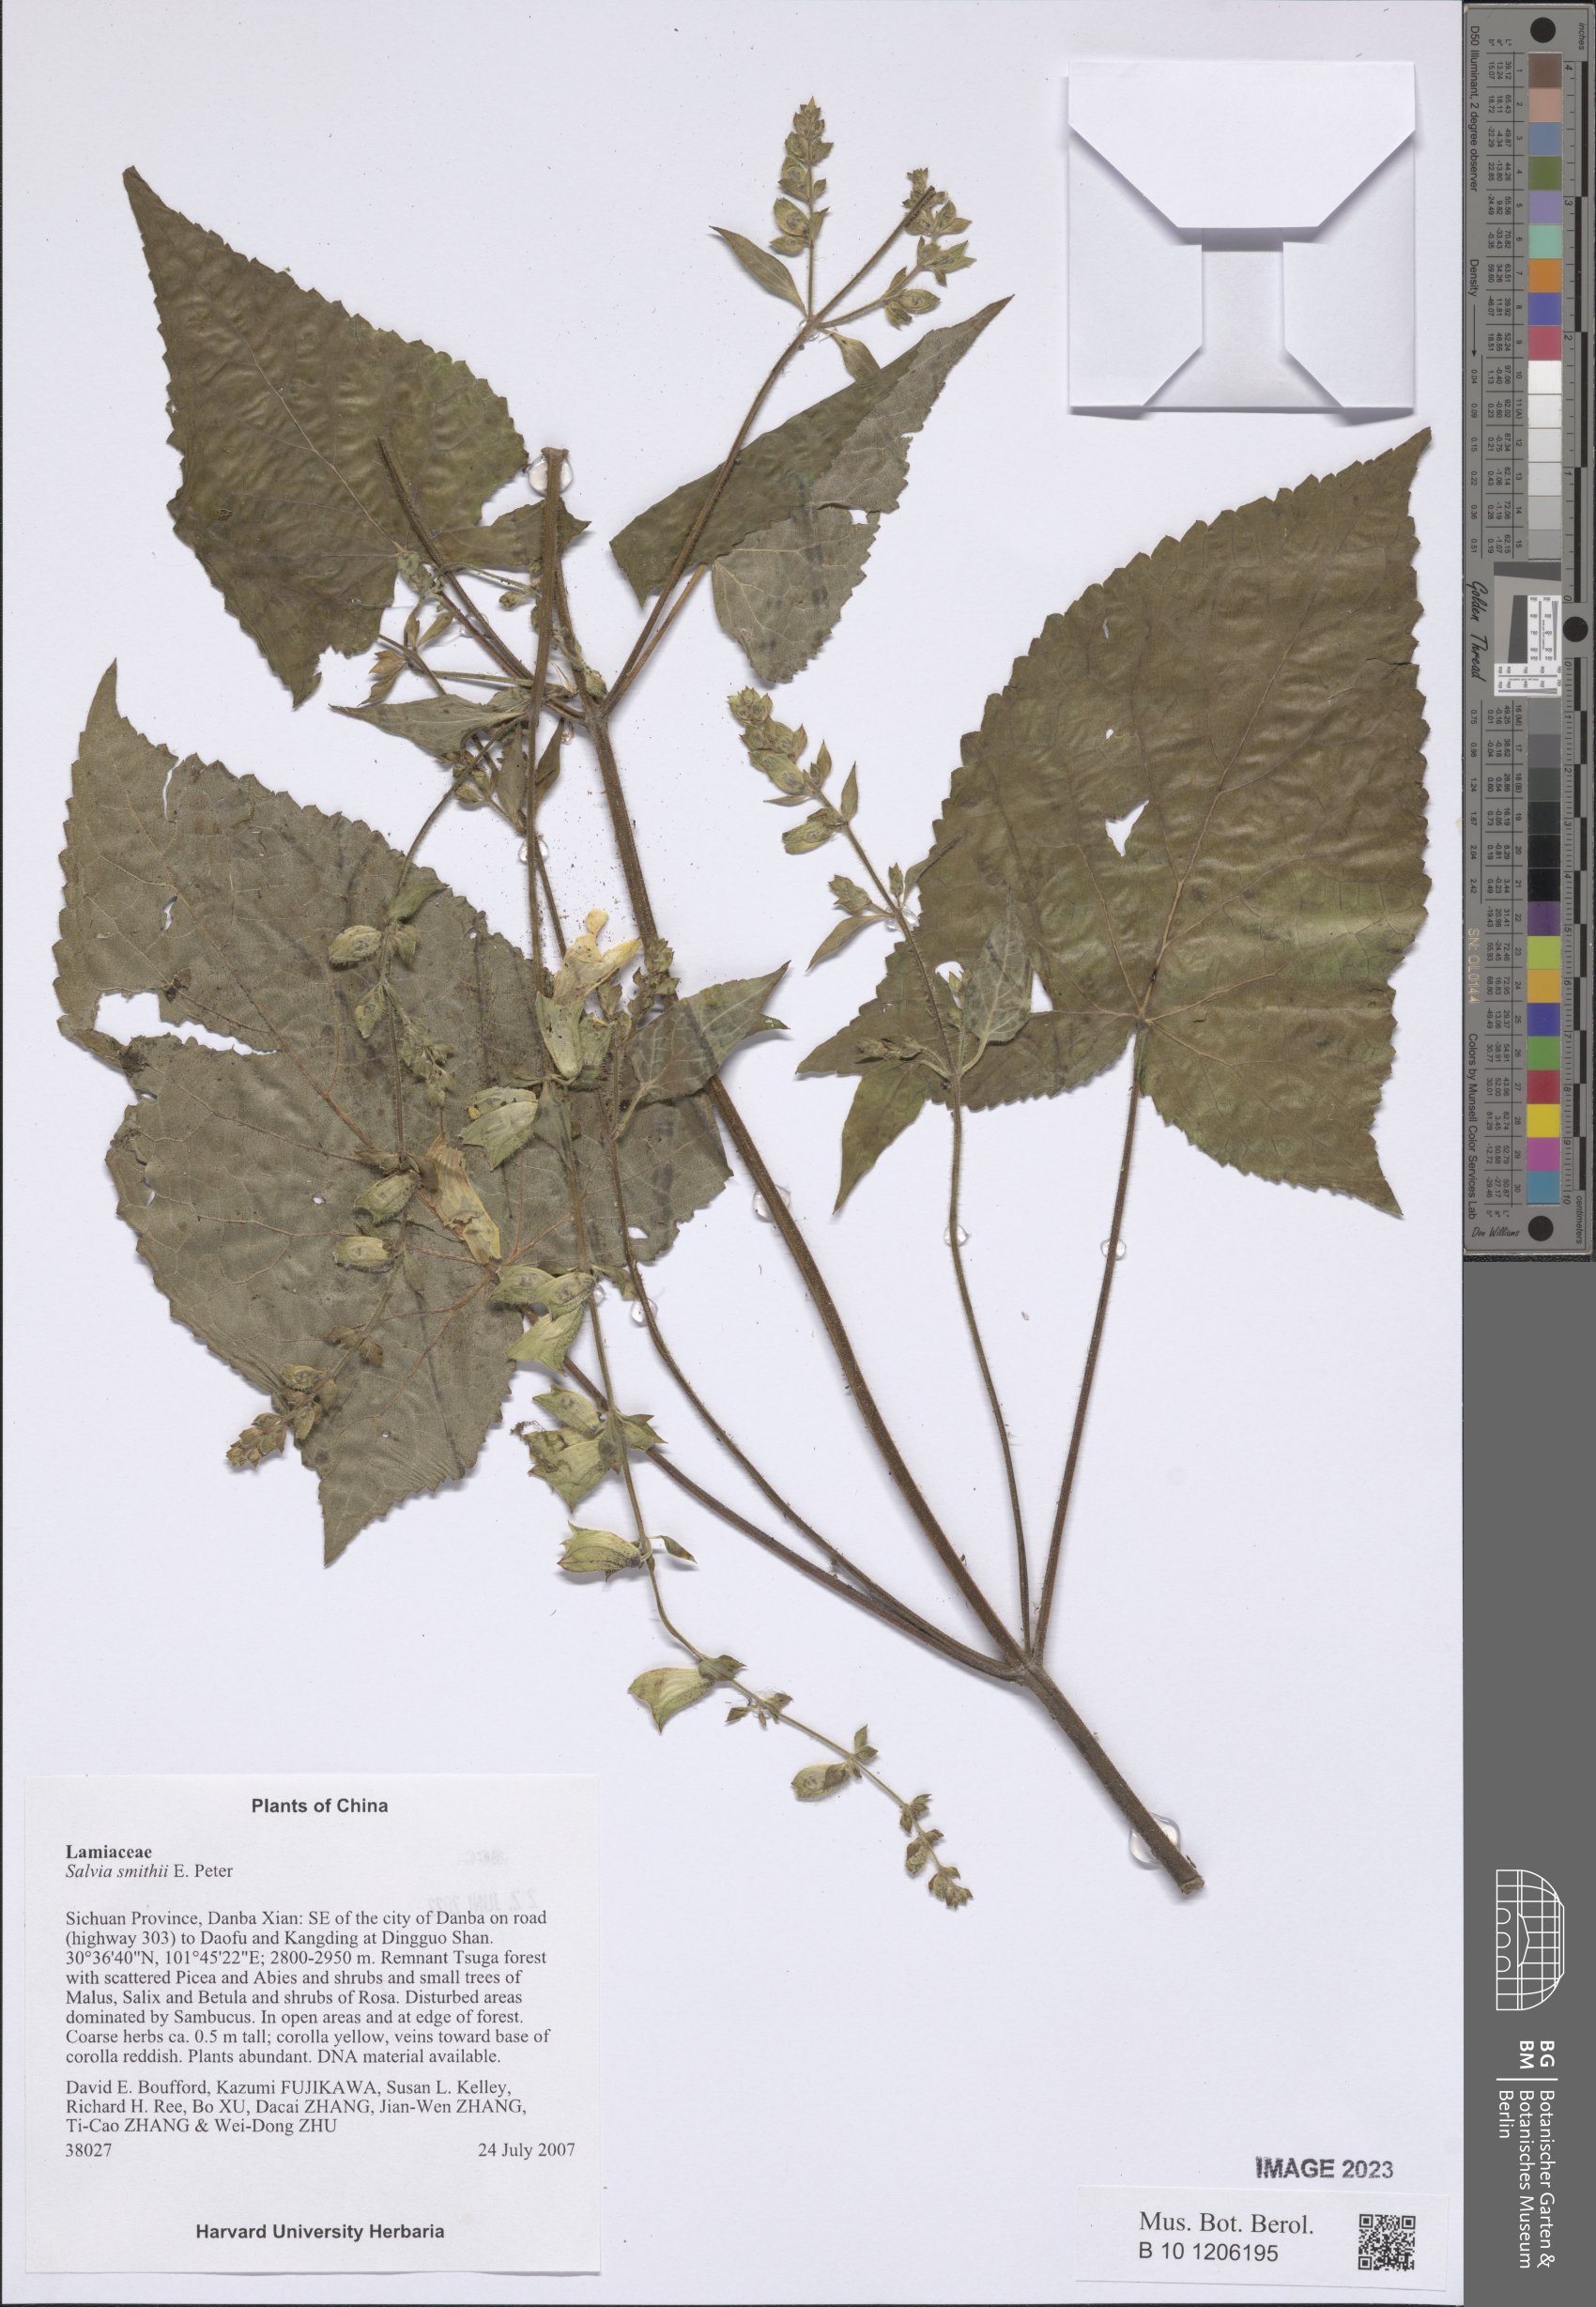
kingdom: Plantae
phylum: Tracheophyta
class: Magnoliopsida
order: Lamiales
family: Lamiaceae
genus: Salvia
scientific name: Salvia smithii
